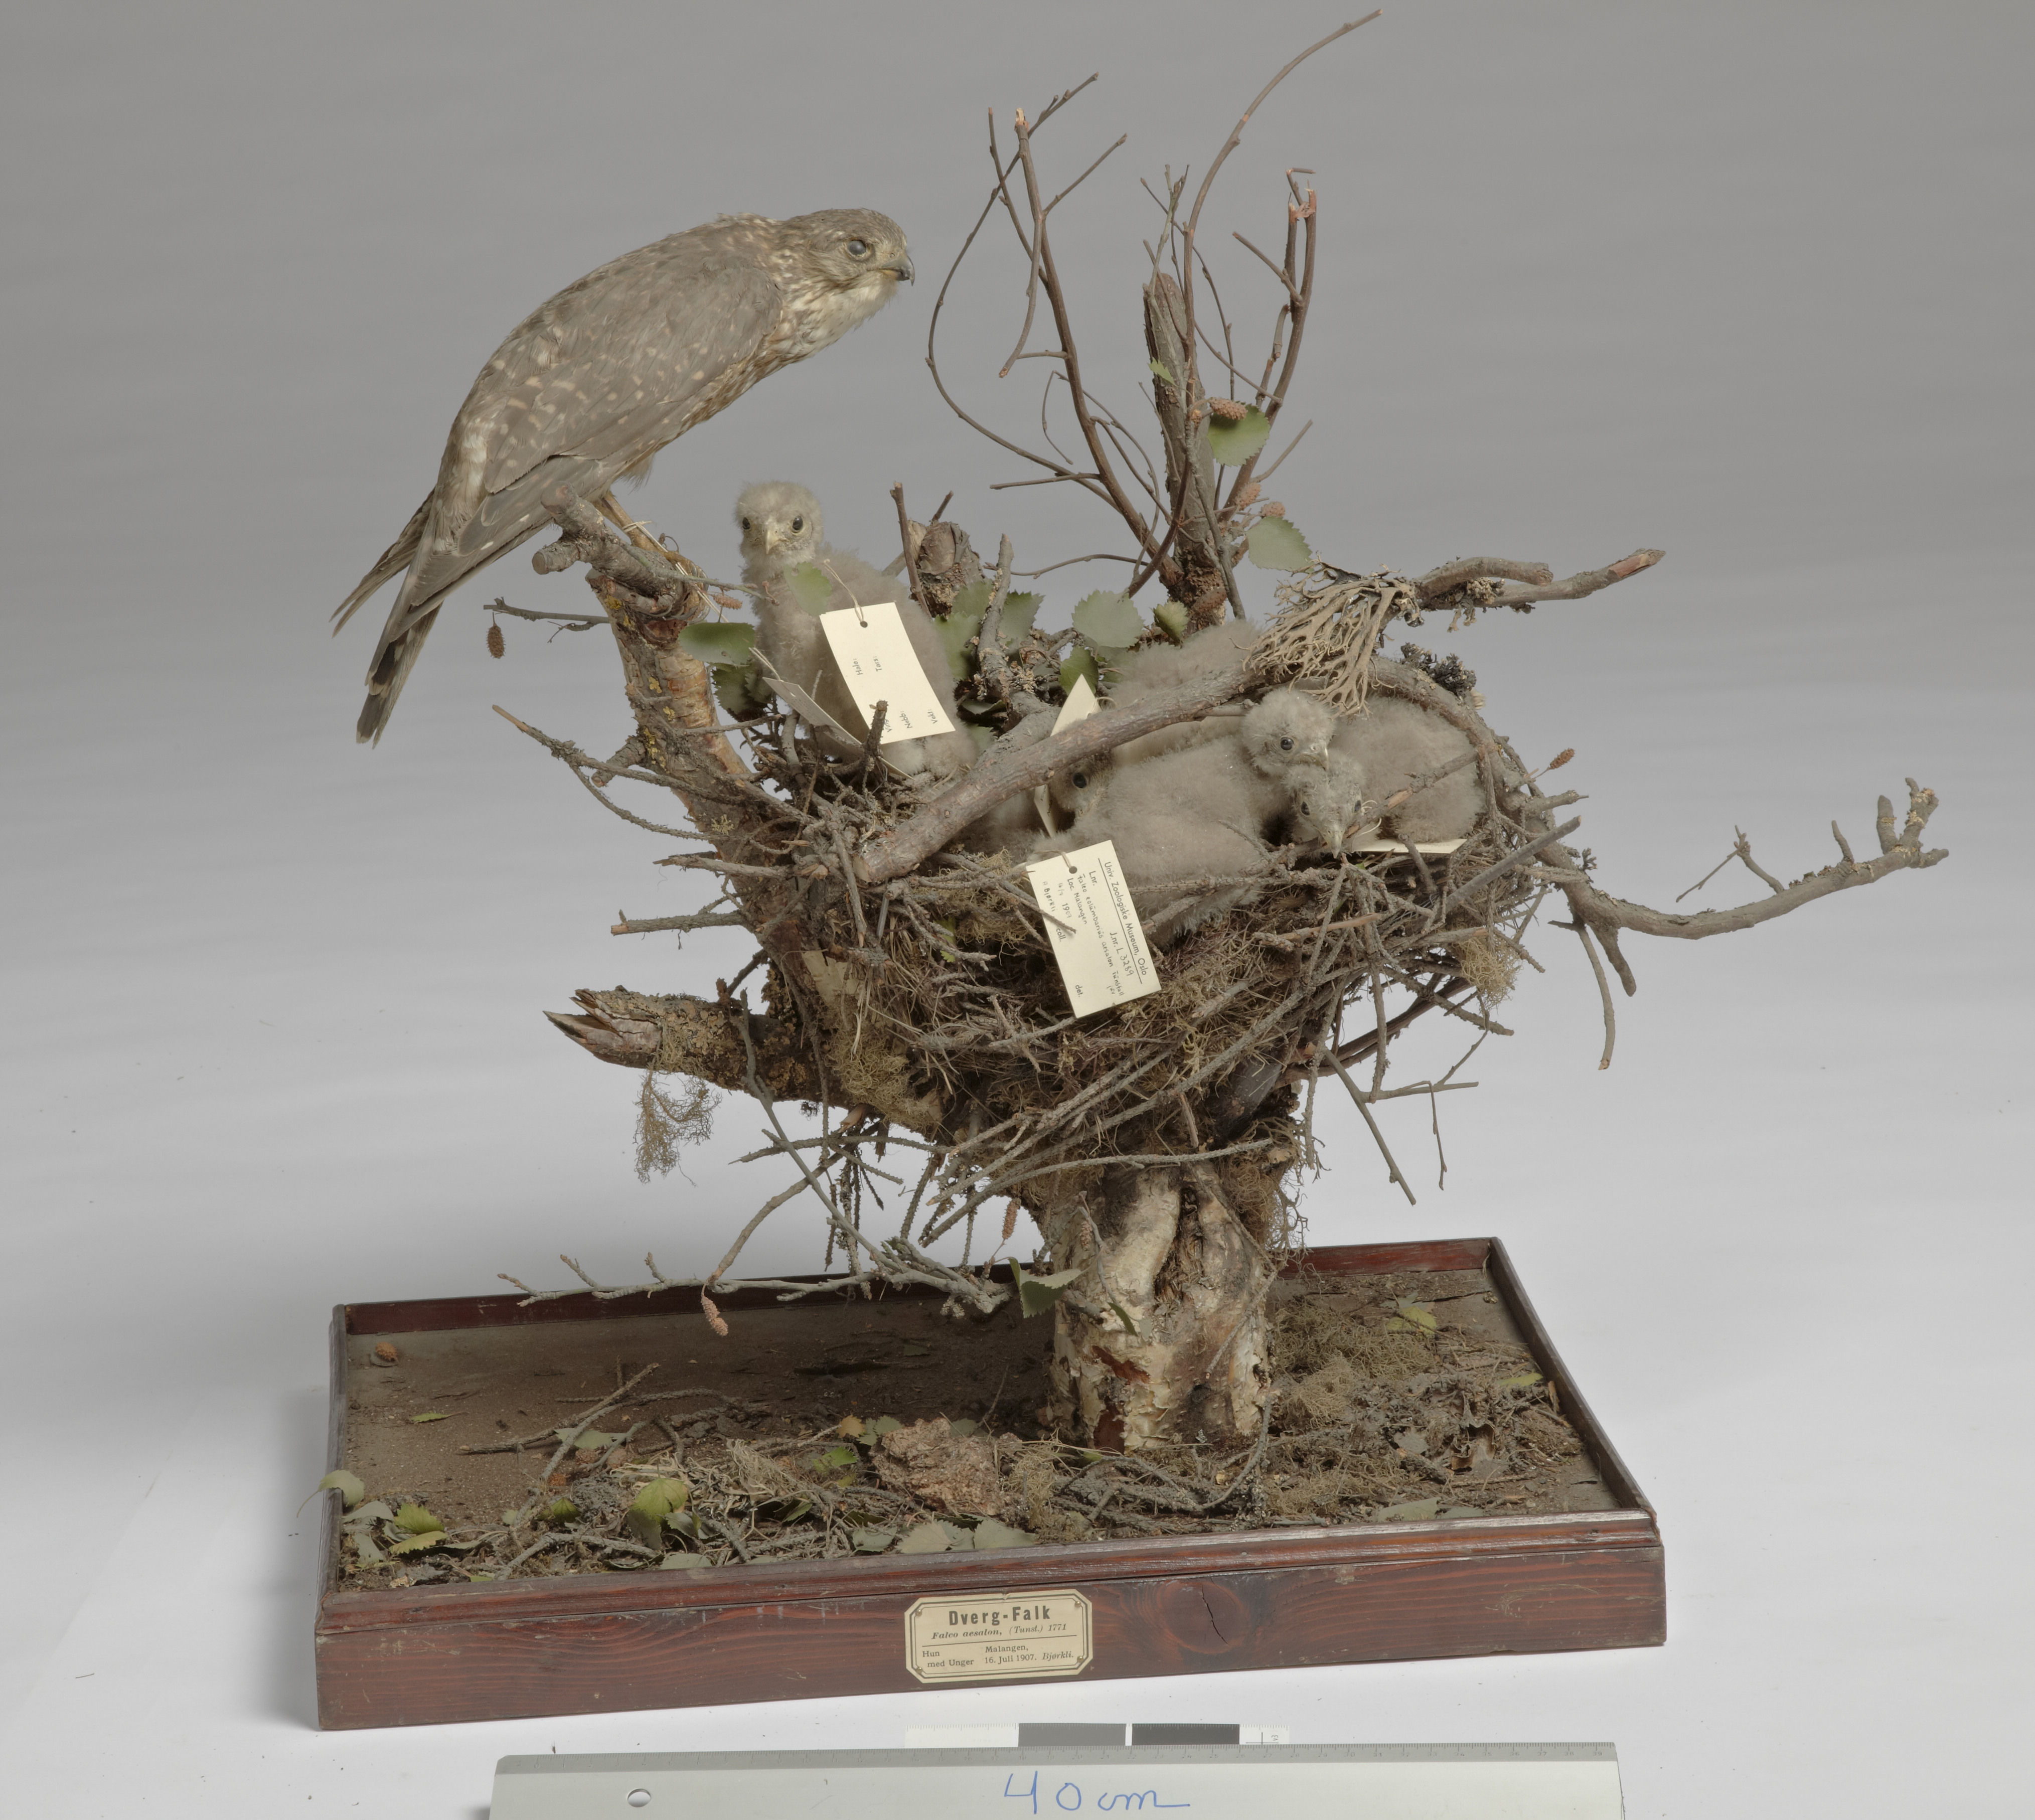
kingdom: Animalia
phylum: Chordata
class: Aves
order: Falconiformes
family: Falconidae
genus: Falco
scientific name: Falco columbarius
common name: Merlin
